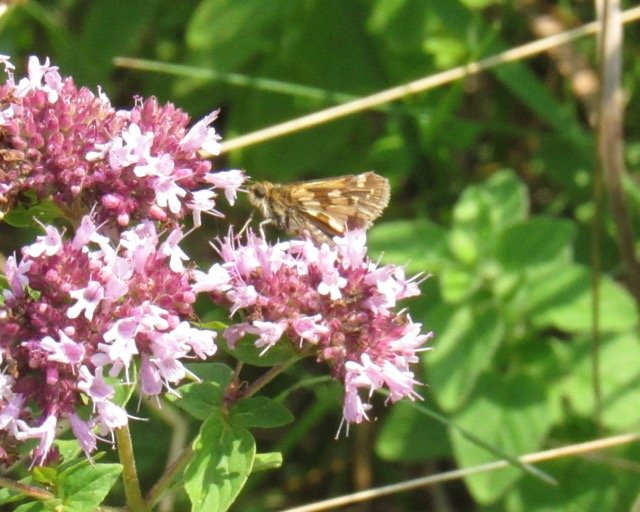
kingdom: Animalia
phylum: Arthropoda
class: Insecta
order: Lepidoptera
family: Hesperiidae
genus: Polites
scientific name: Polites coras
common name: Peck's Skipper
